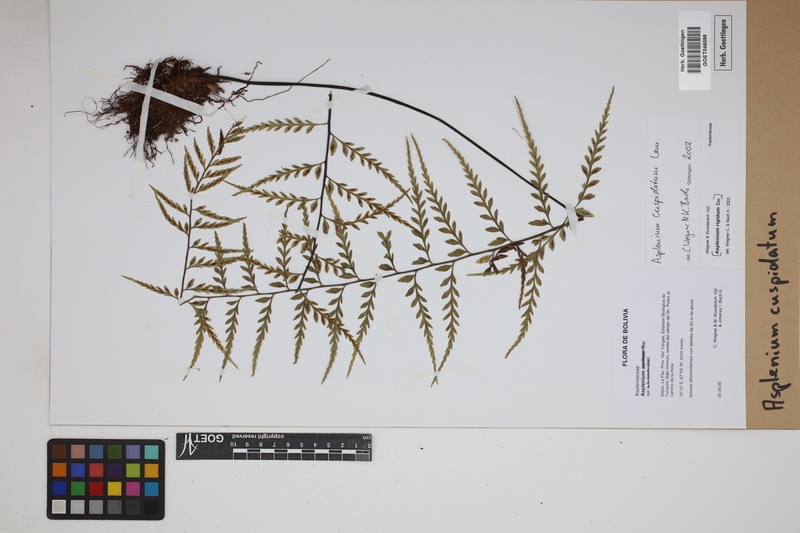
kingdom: Plantae
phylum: Tracheophyta
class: Polypodiopsida
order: Polypodiales
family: Aspleniaceae
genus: Asplenium
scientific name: Asplenium cuspidatum
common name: Eared spleenwort
